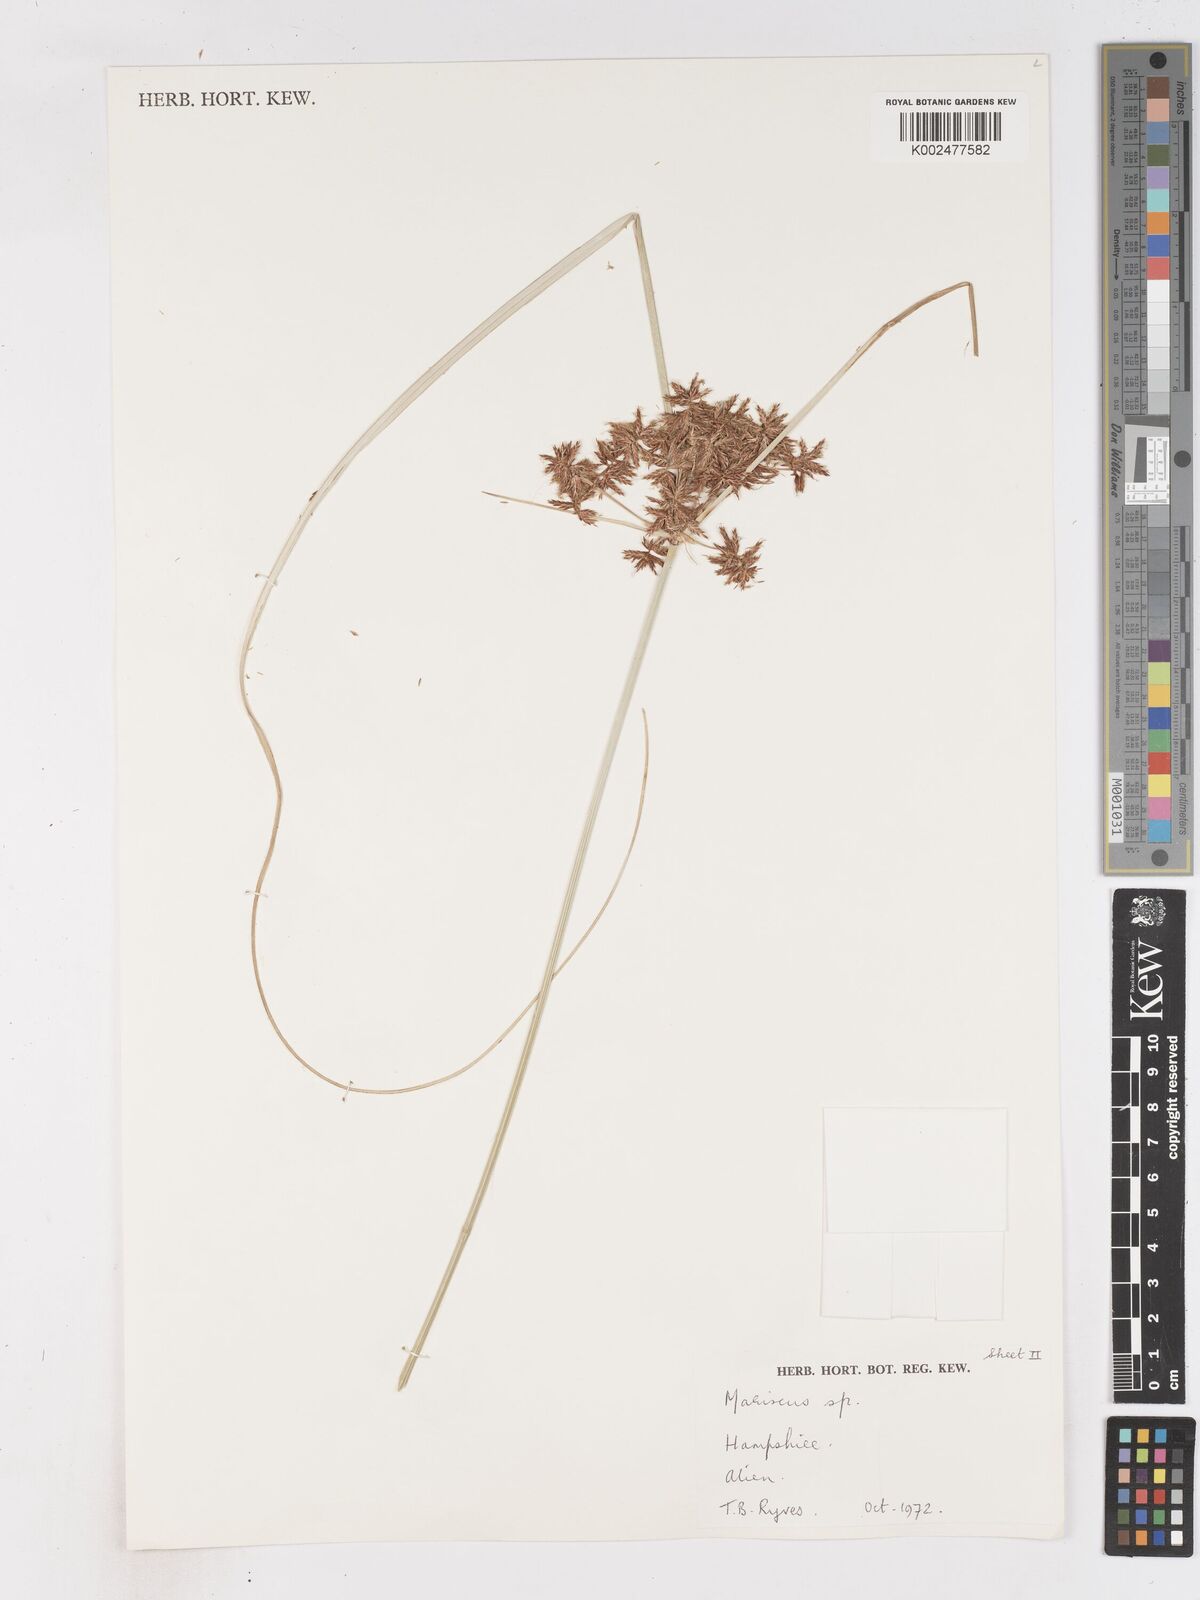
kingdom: Plantae
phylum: Tracheophyta
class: Liliopsida
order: Poales
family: Cyperaceae
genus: Cyperus
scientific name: Cyperus lhotskyanus
